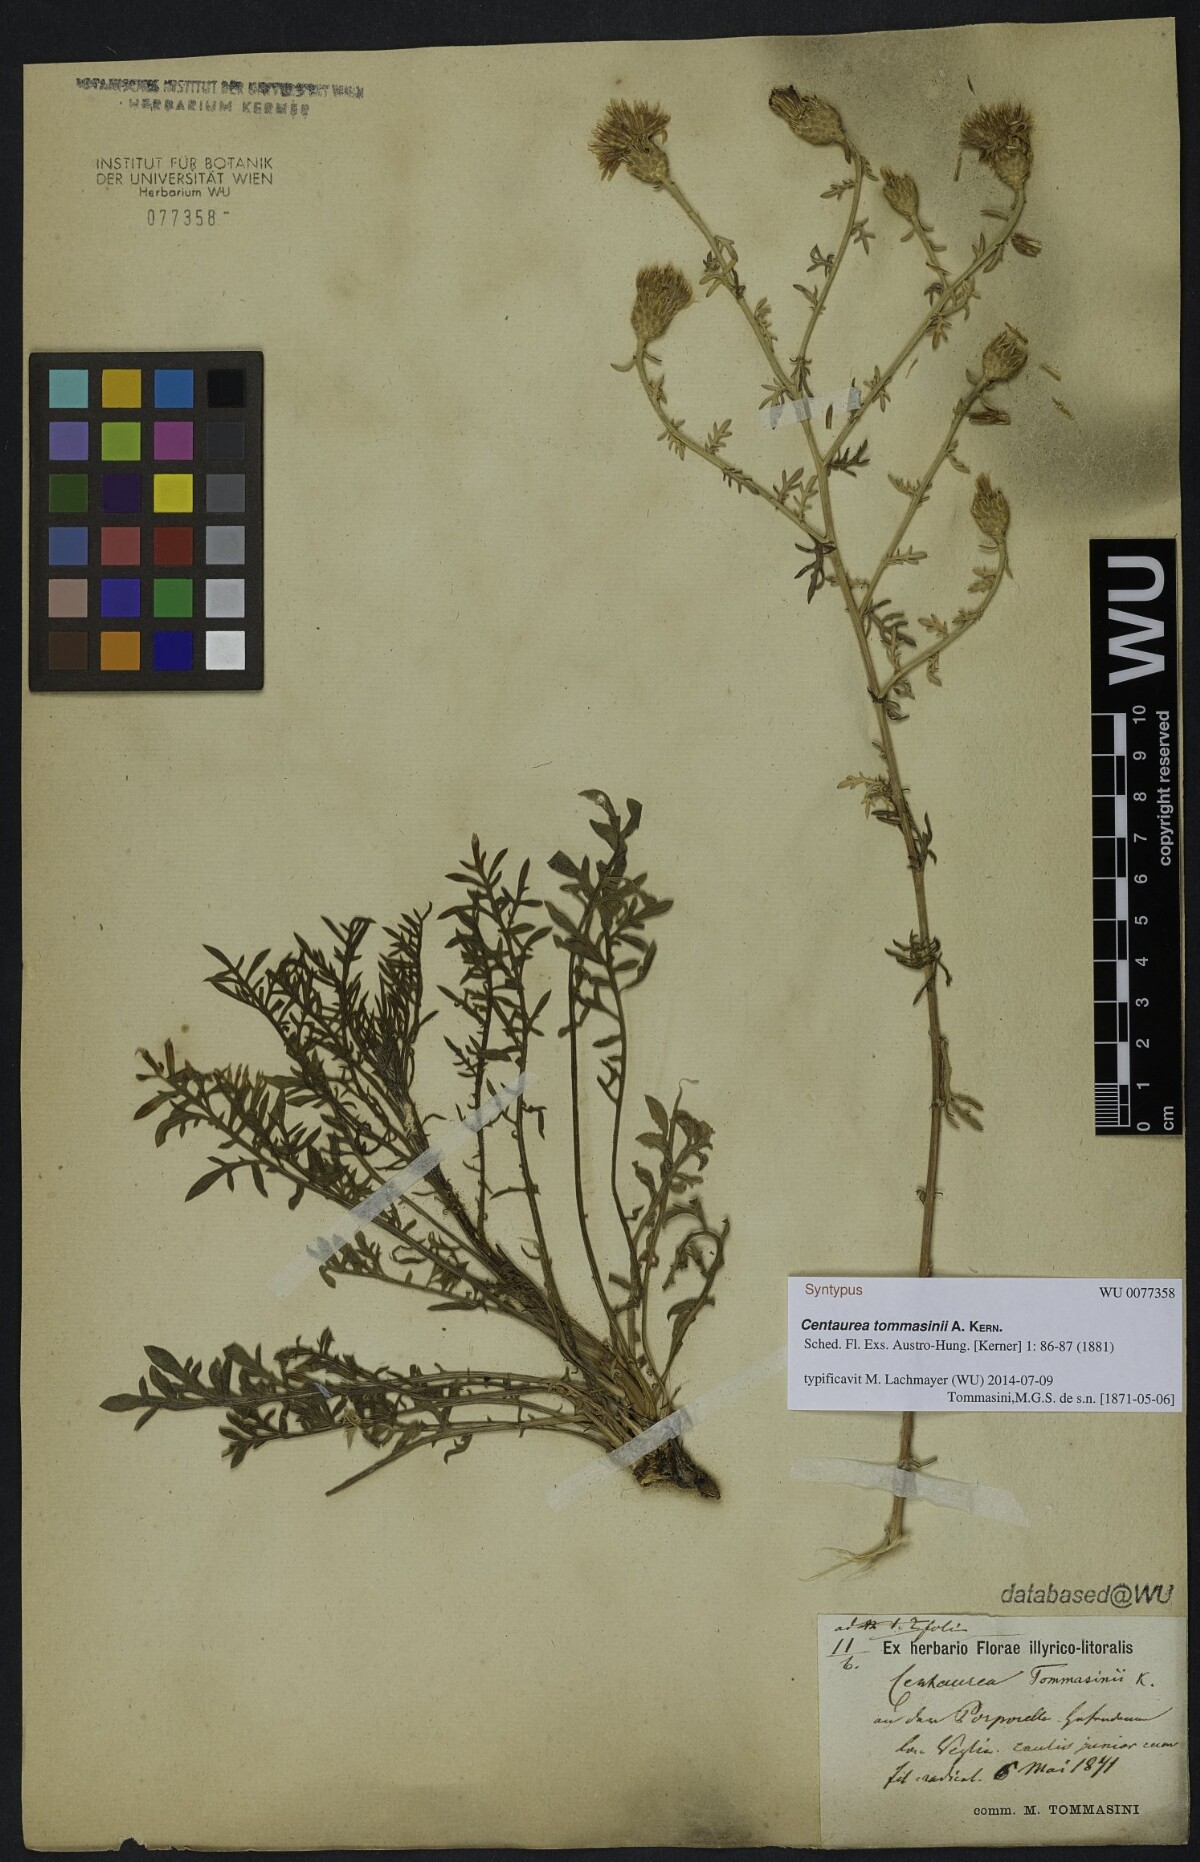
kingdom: Plantae
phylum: Tracheophyta
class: Magnoliopsida
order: Asterales
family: Asteraceae
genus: Centaurea
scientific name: Centaurea tommasinii
